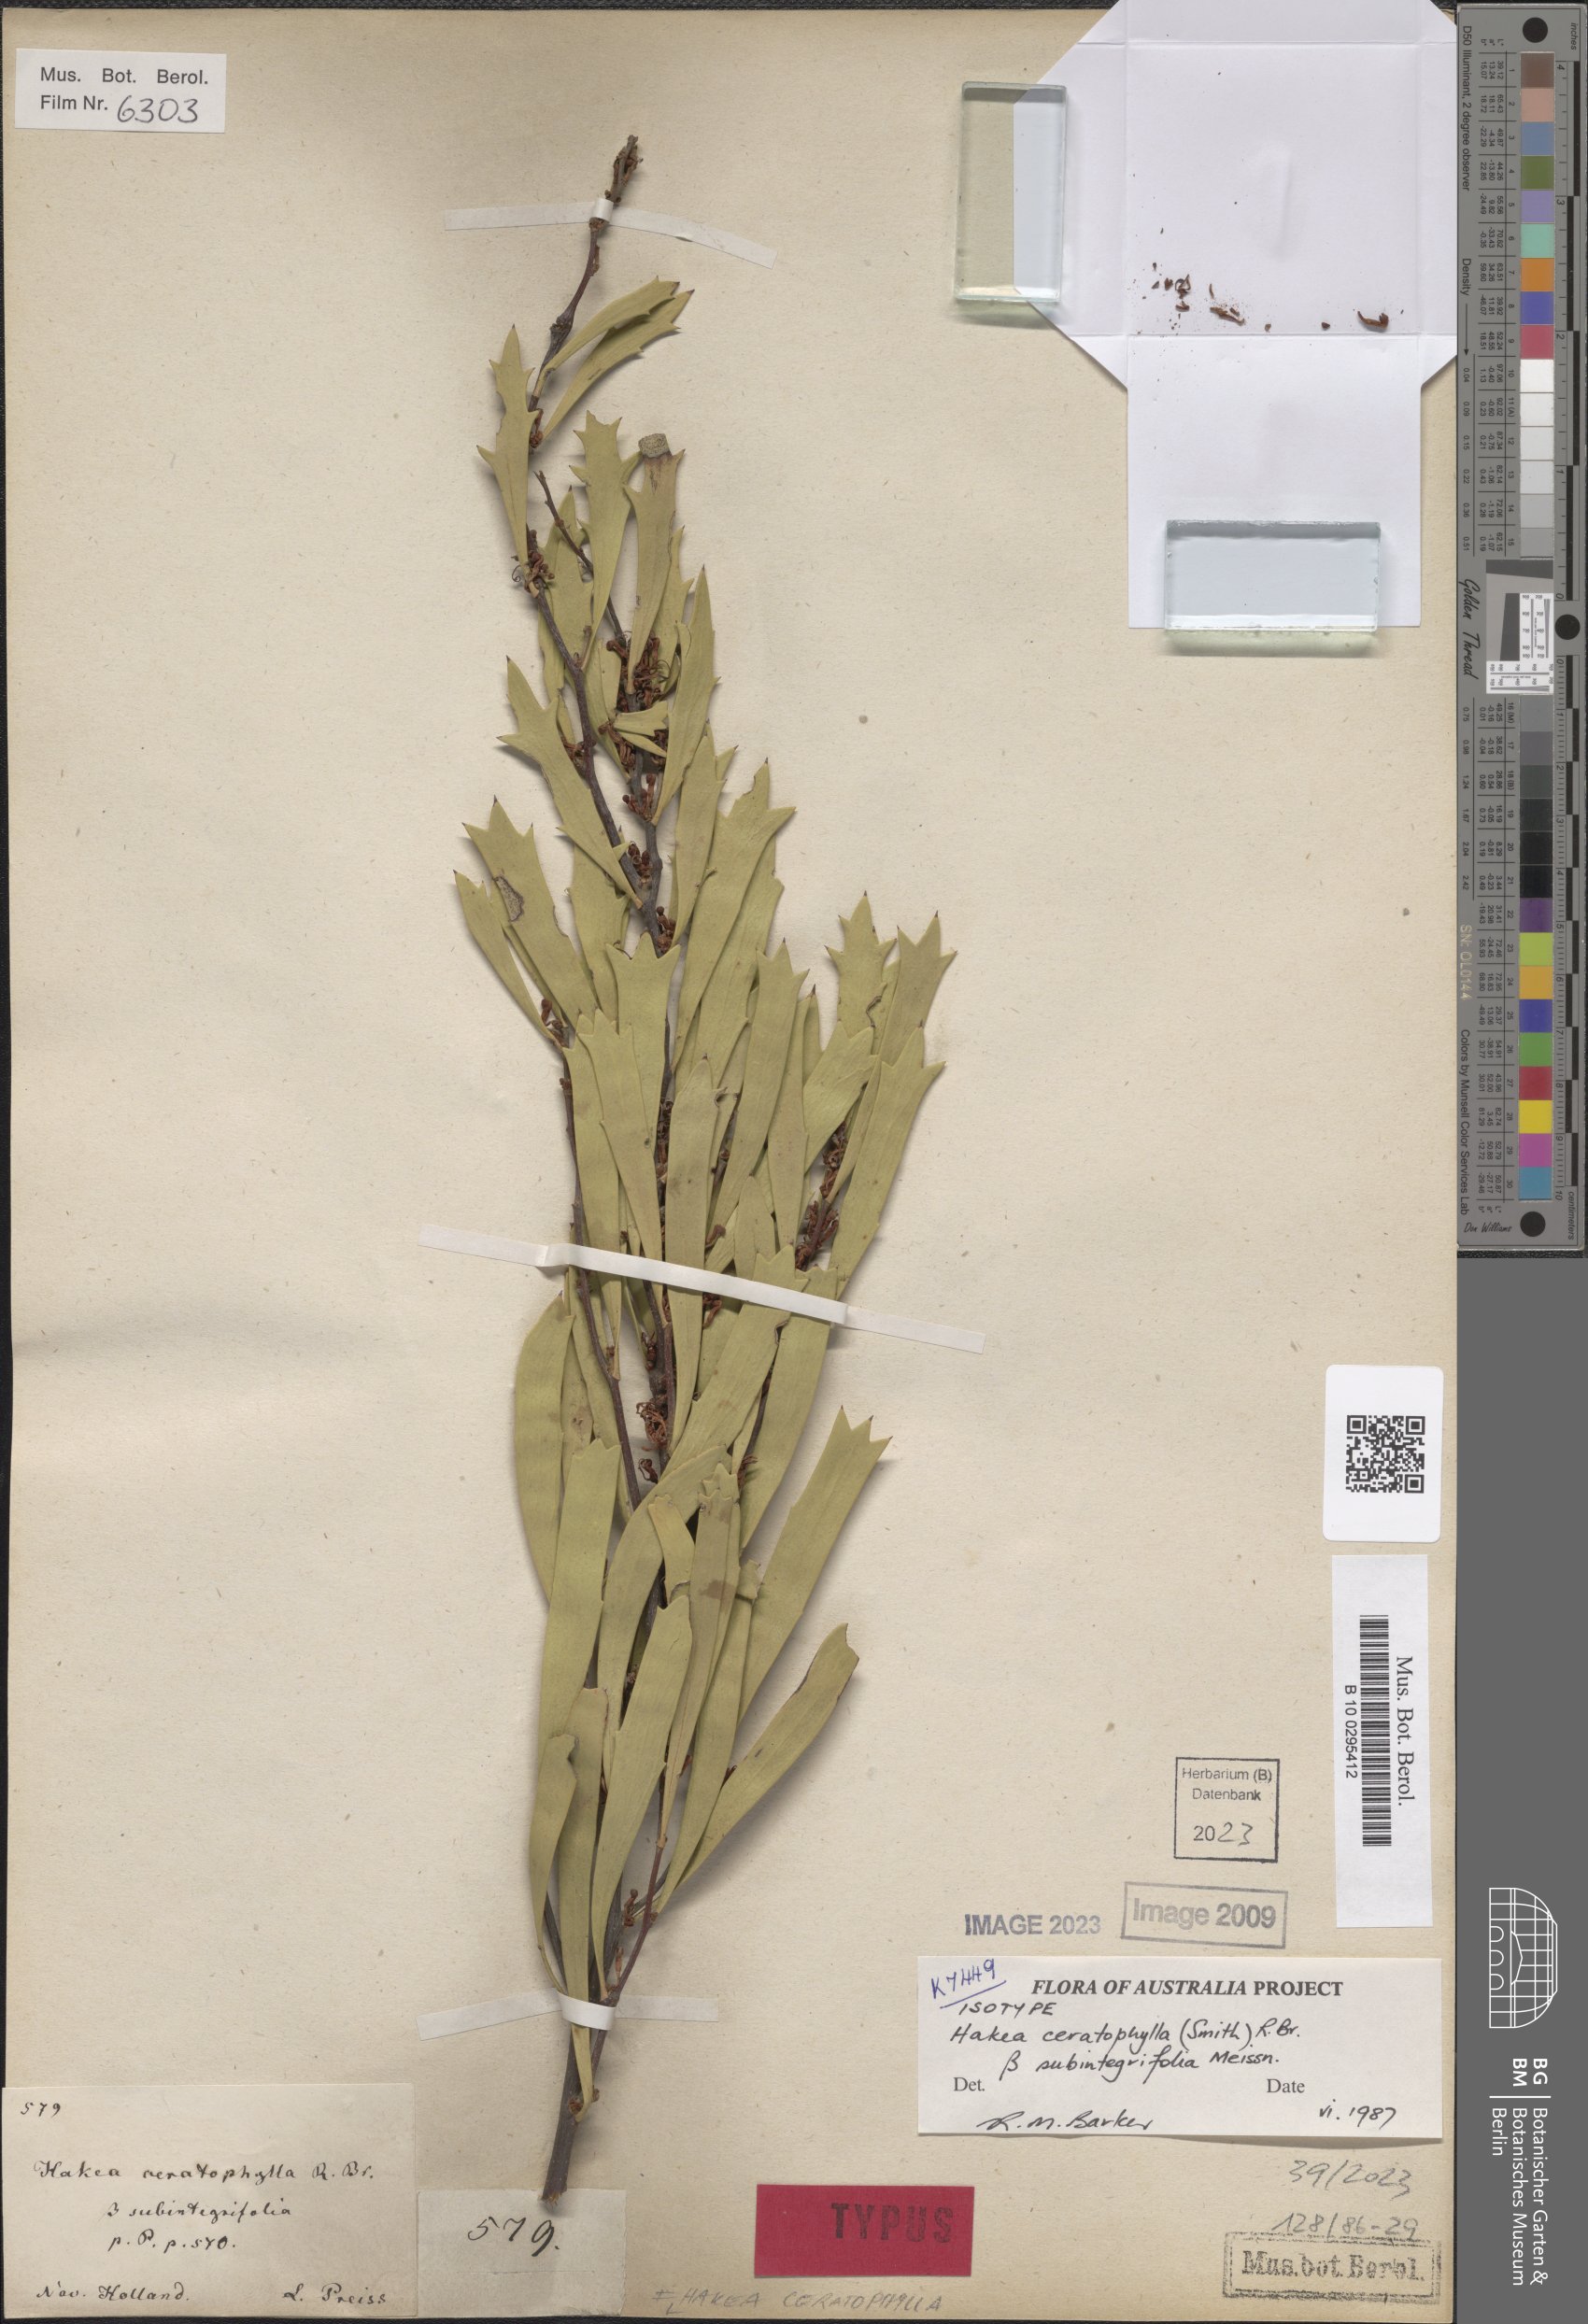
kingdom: Plantae
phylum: Tracheophyta
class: Magnoliopsida
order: Proteales
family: Proteaceae
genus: Hakea
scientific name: Hakea ceratophylla
